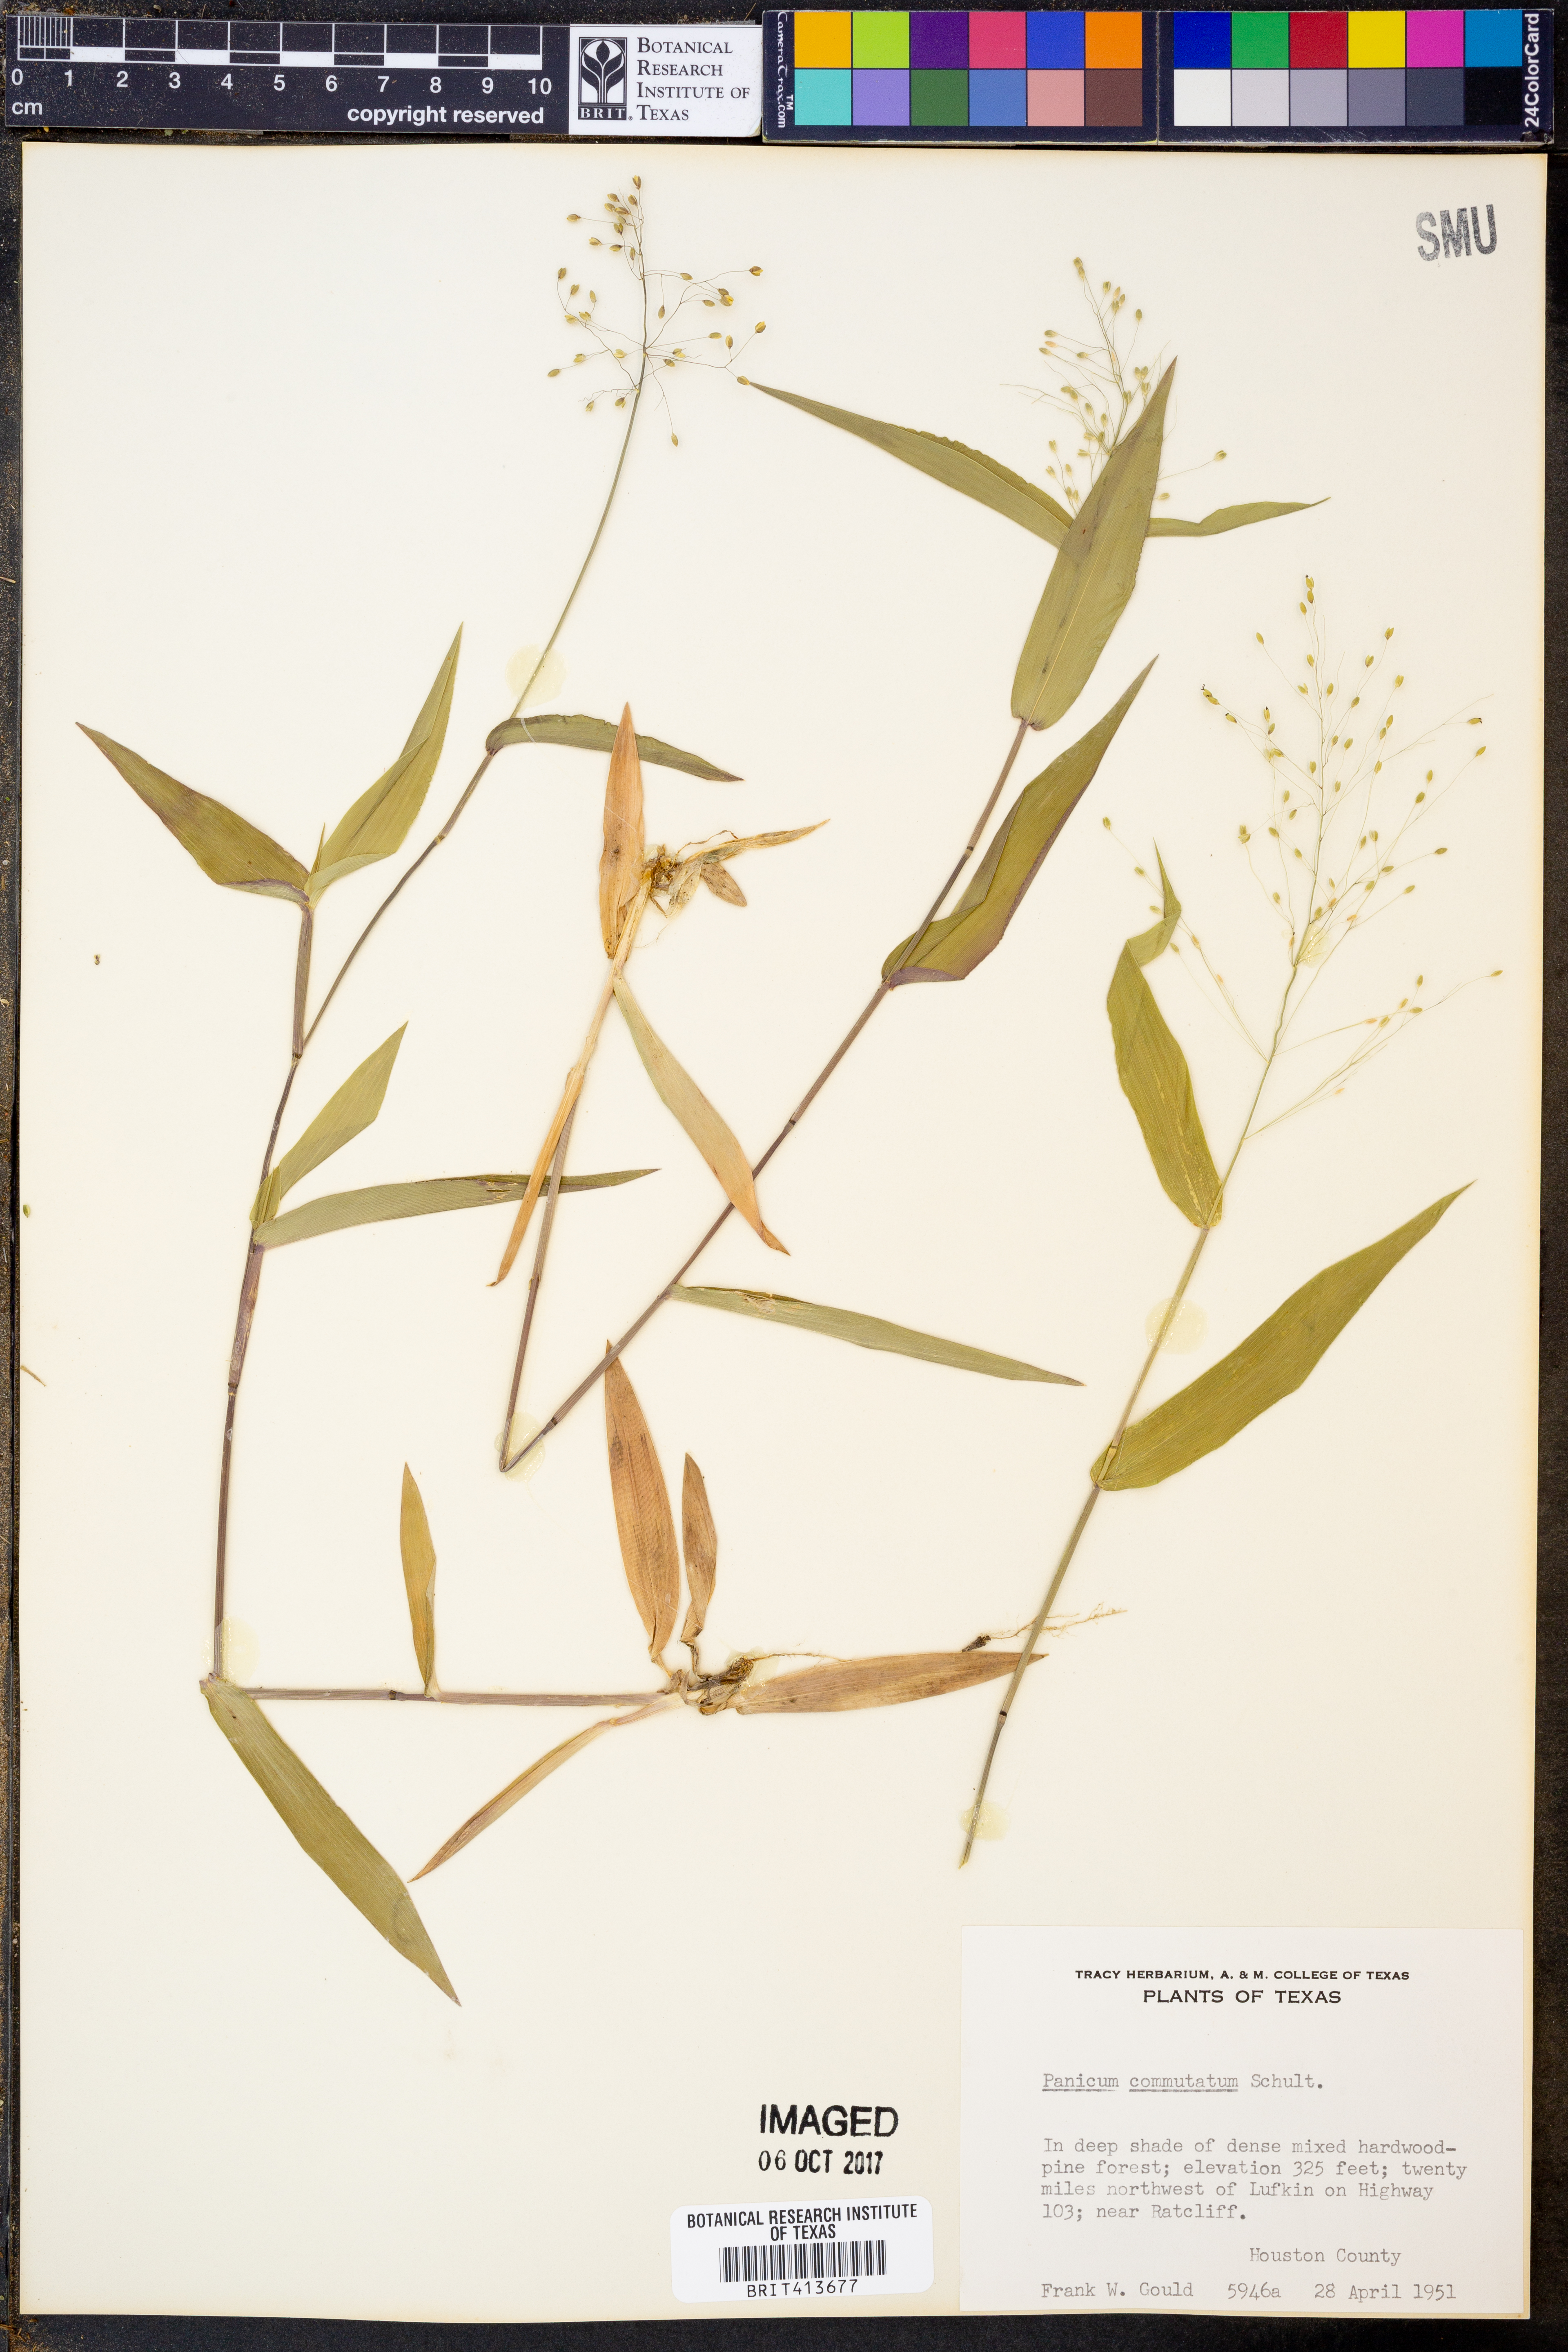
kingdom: Plantae
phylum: Tracheophyta
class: Liliopsida
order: Poales
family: Poaceae
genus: Dichanthelium
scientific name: Dichanthelium commutatum
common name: Variable witchgrass
